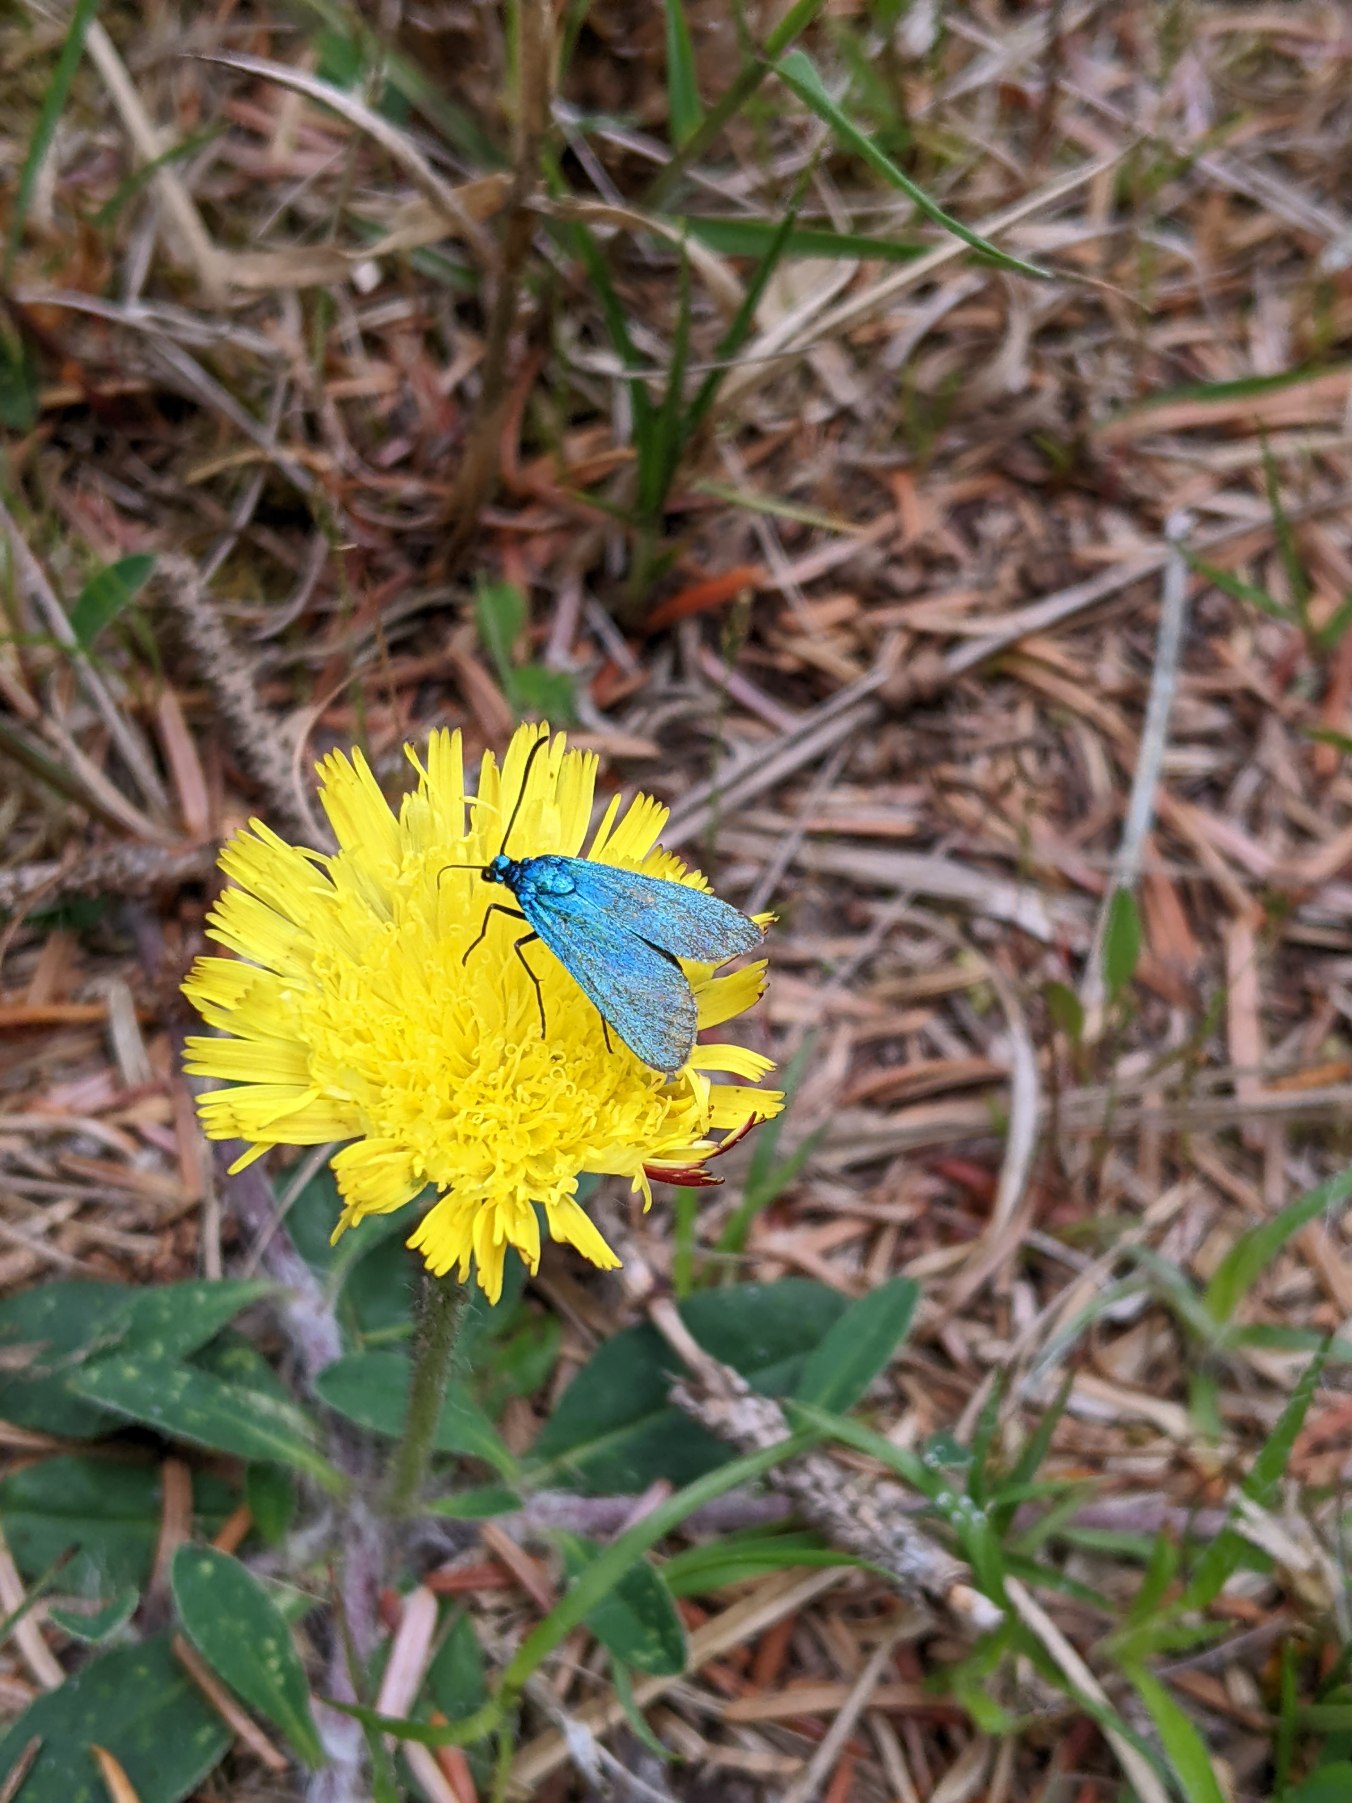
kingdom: Animalia
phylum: Arthropoda
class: Insecta
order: Lepidoptera
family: Zygaenidae
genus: Adscita
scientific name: Adscita statices
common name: Metalvinge
